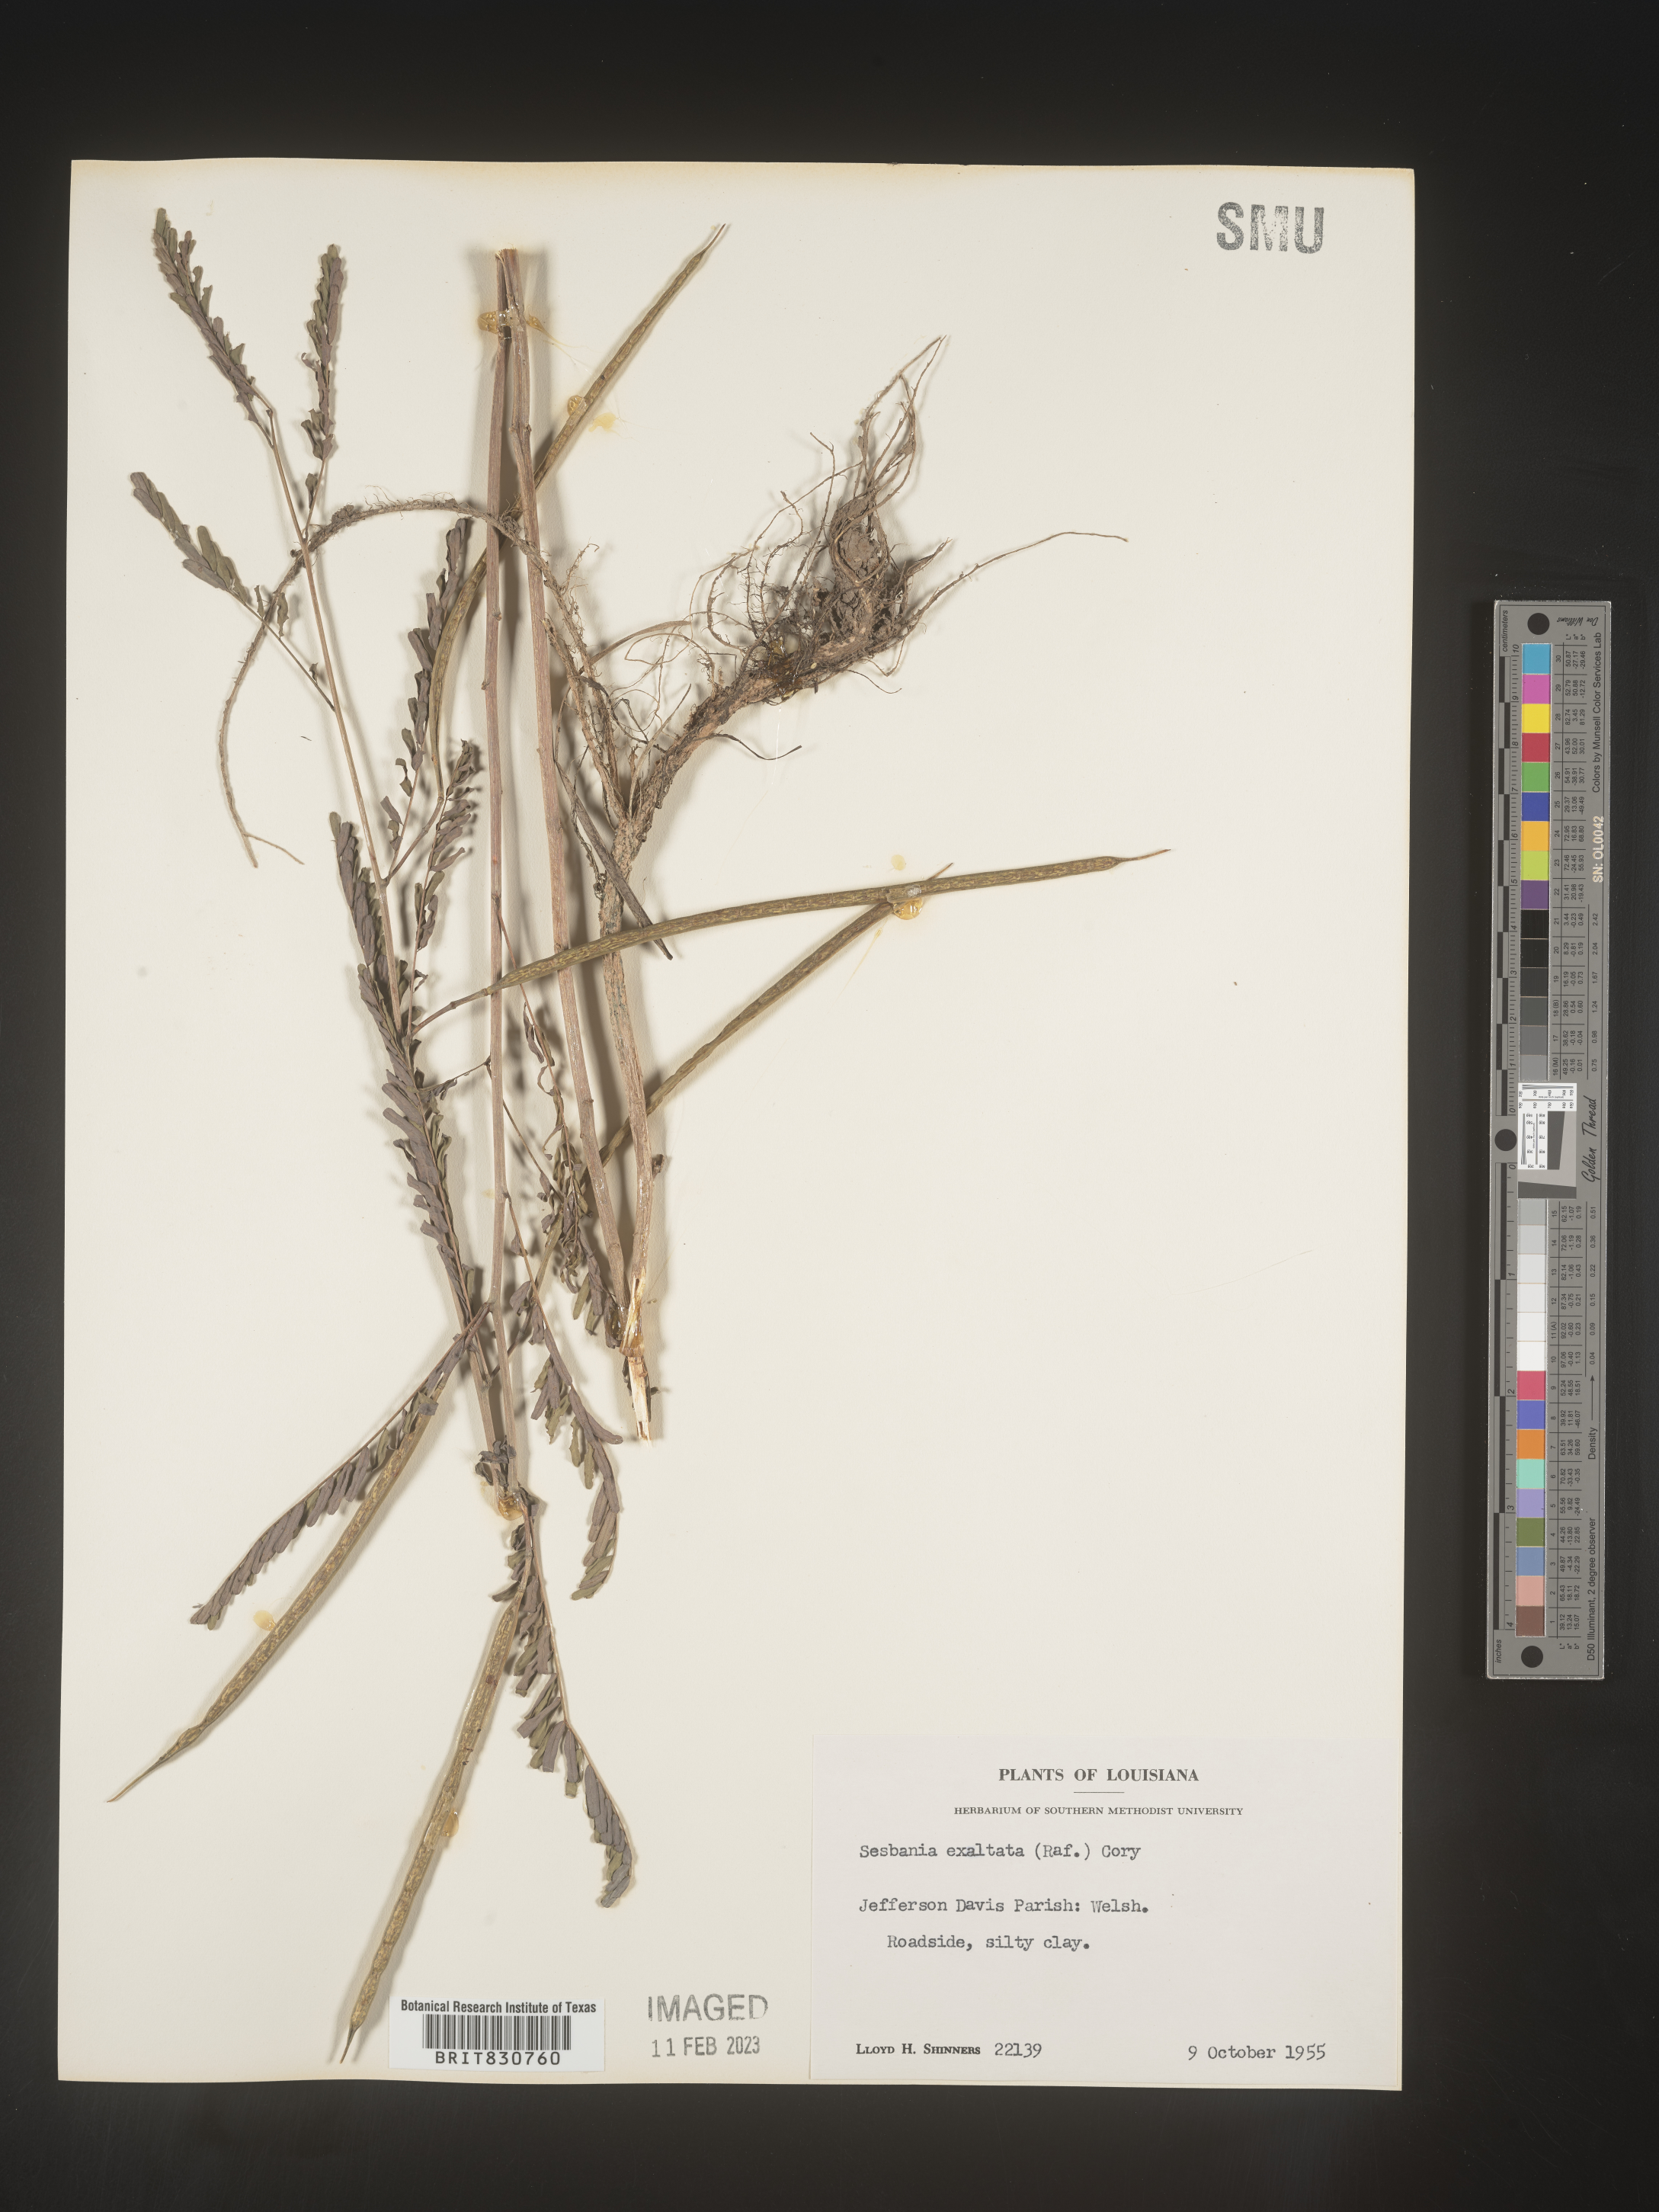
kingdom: Plantae
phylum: Tracheophyta
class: Magnoliopsida
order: Fabales
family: Fabaceae
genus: Sesbania
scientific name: Sesbania vesicaria
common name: Bagpod
